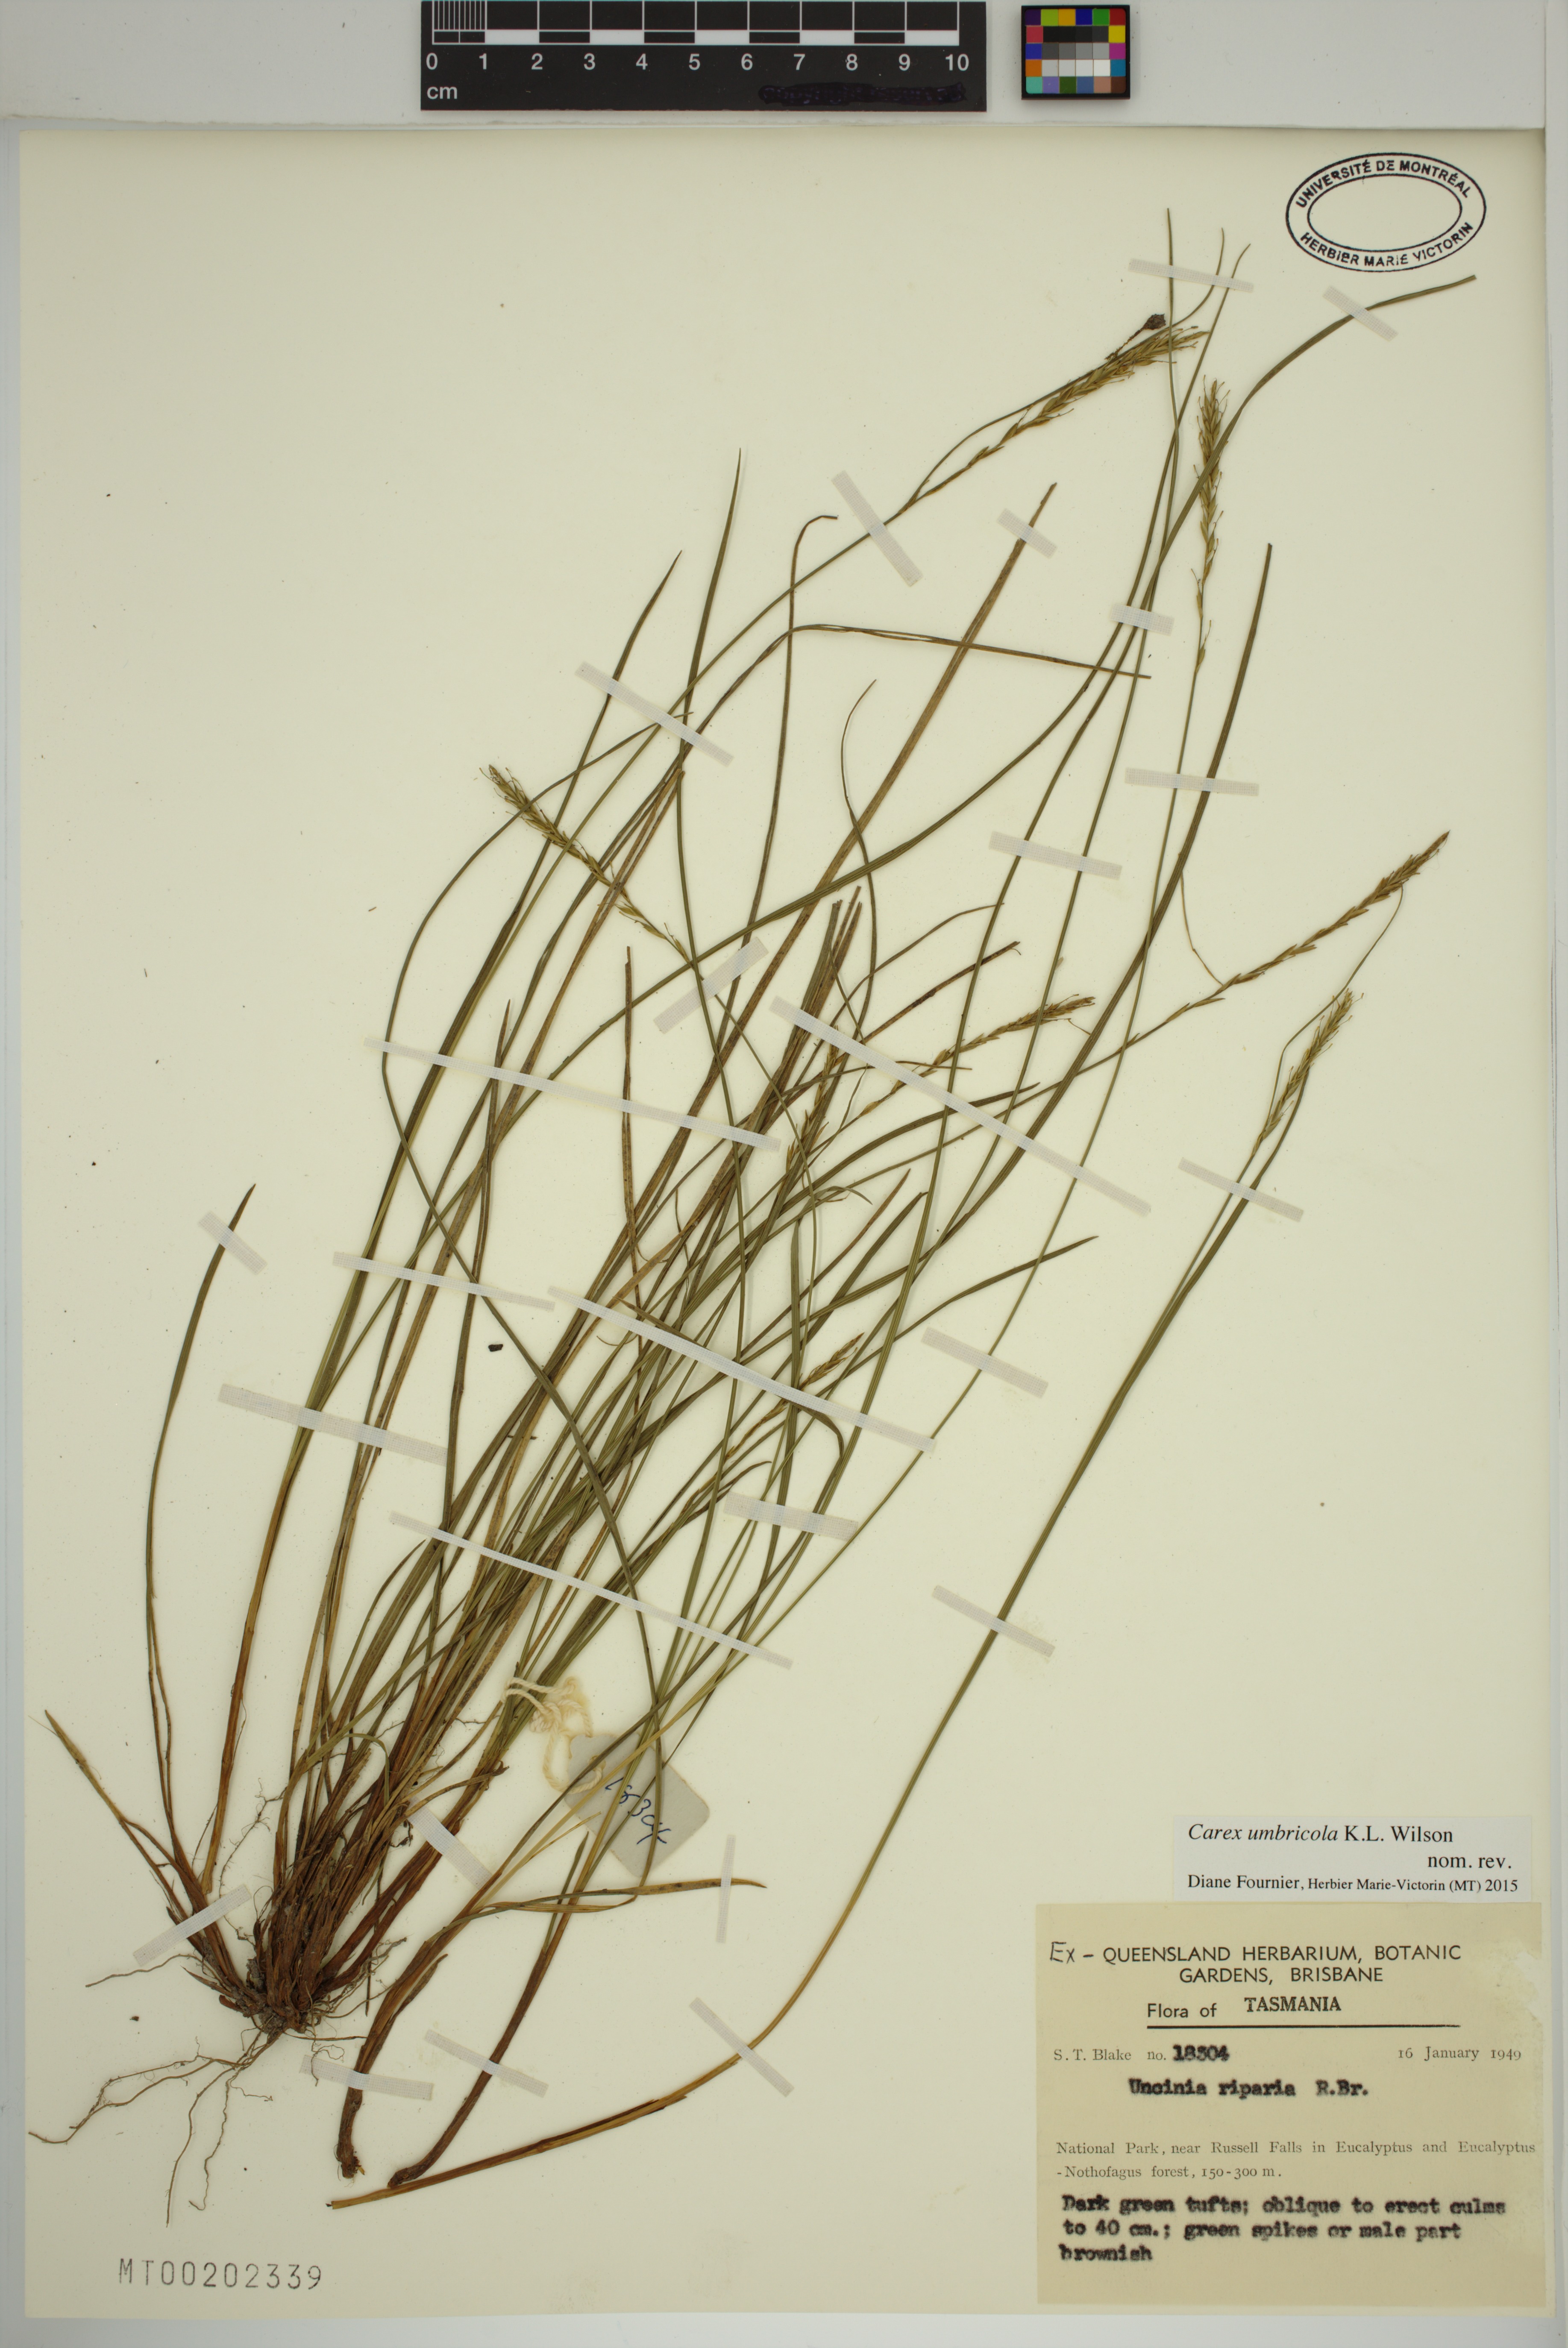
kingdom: Plantae
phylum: Tracheophyta
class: Liliopsida
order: Poales
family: Cyperaceae
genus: Carex
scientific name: Carex umbricola
